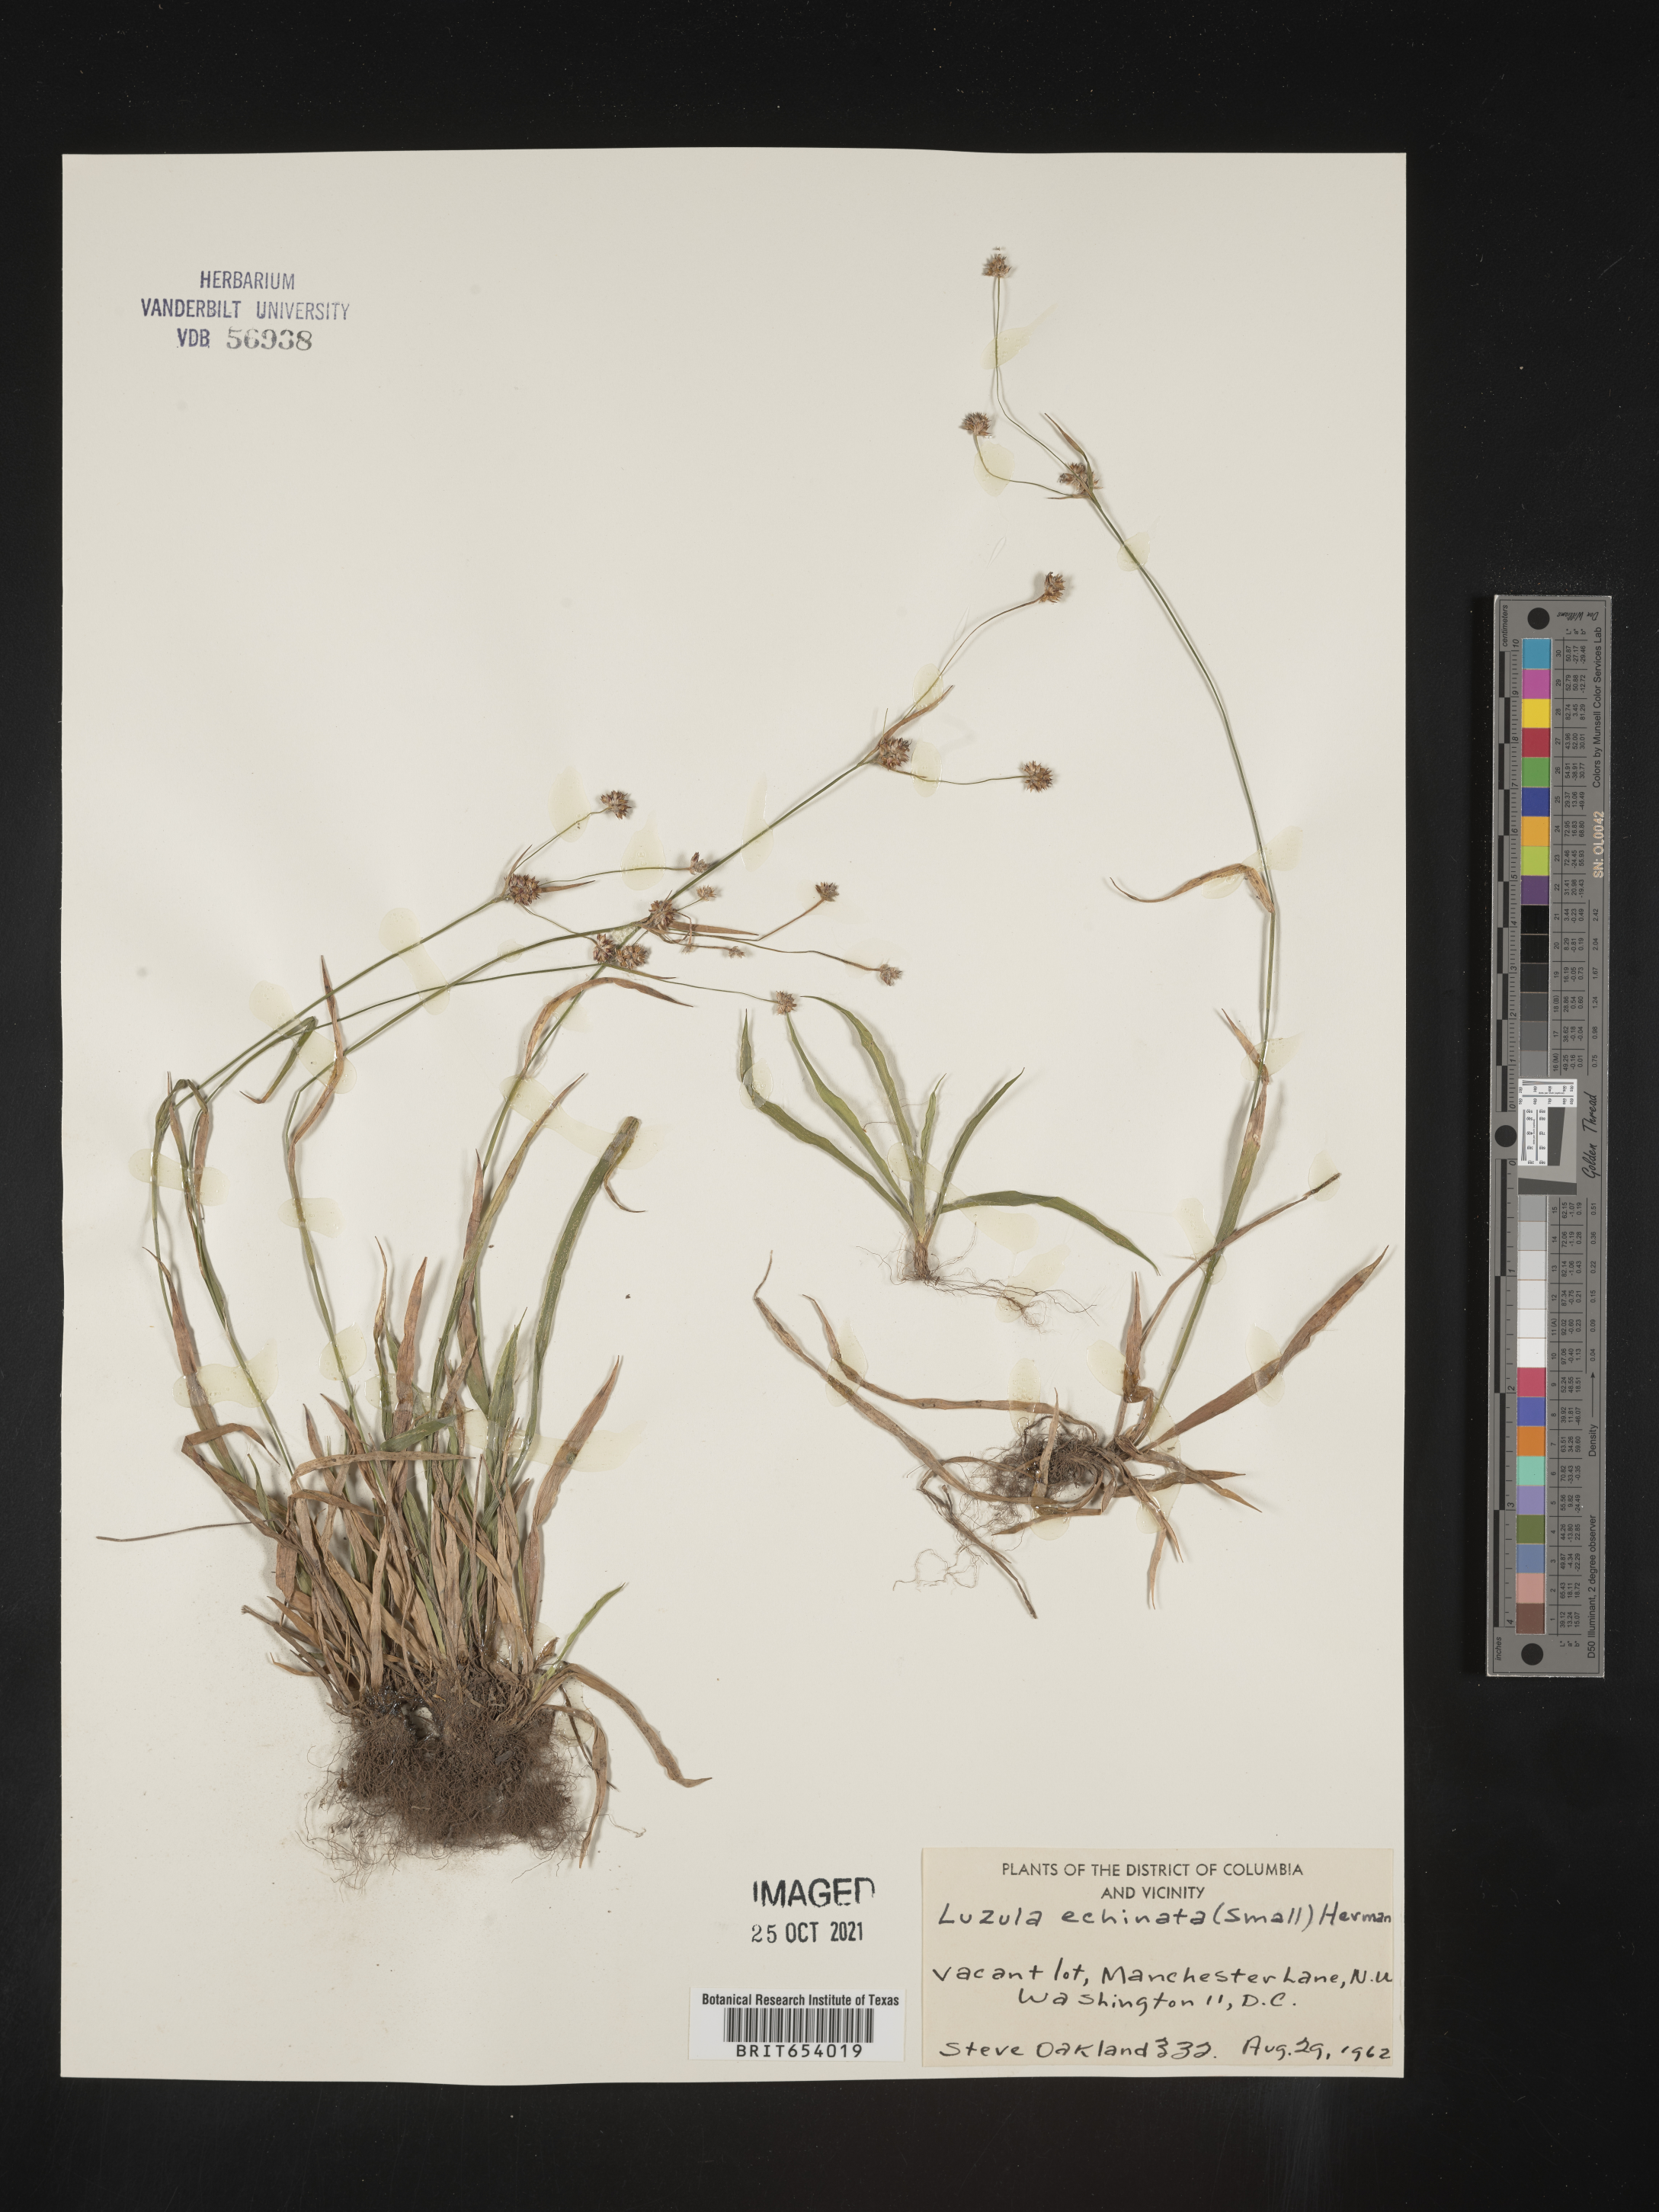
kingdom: Plantae
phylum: Tracheophyta
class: Liliopsida
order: Poales
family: Juncaceae
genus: Luzula
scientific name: Luzula echinata
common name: Hedgehog woodrush
